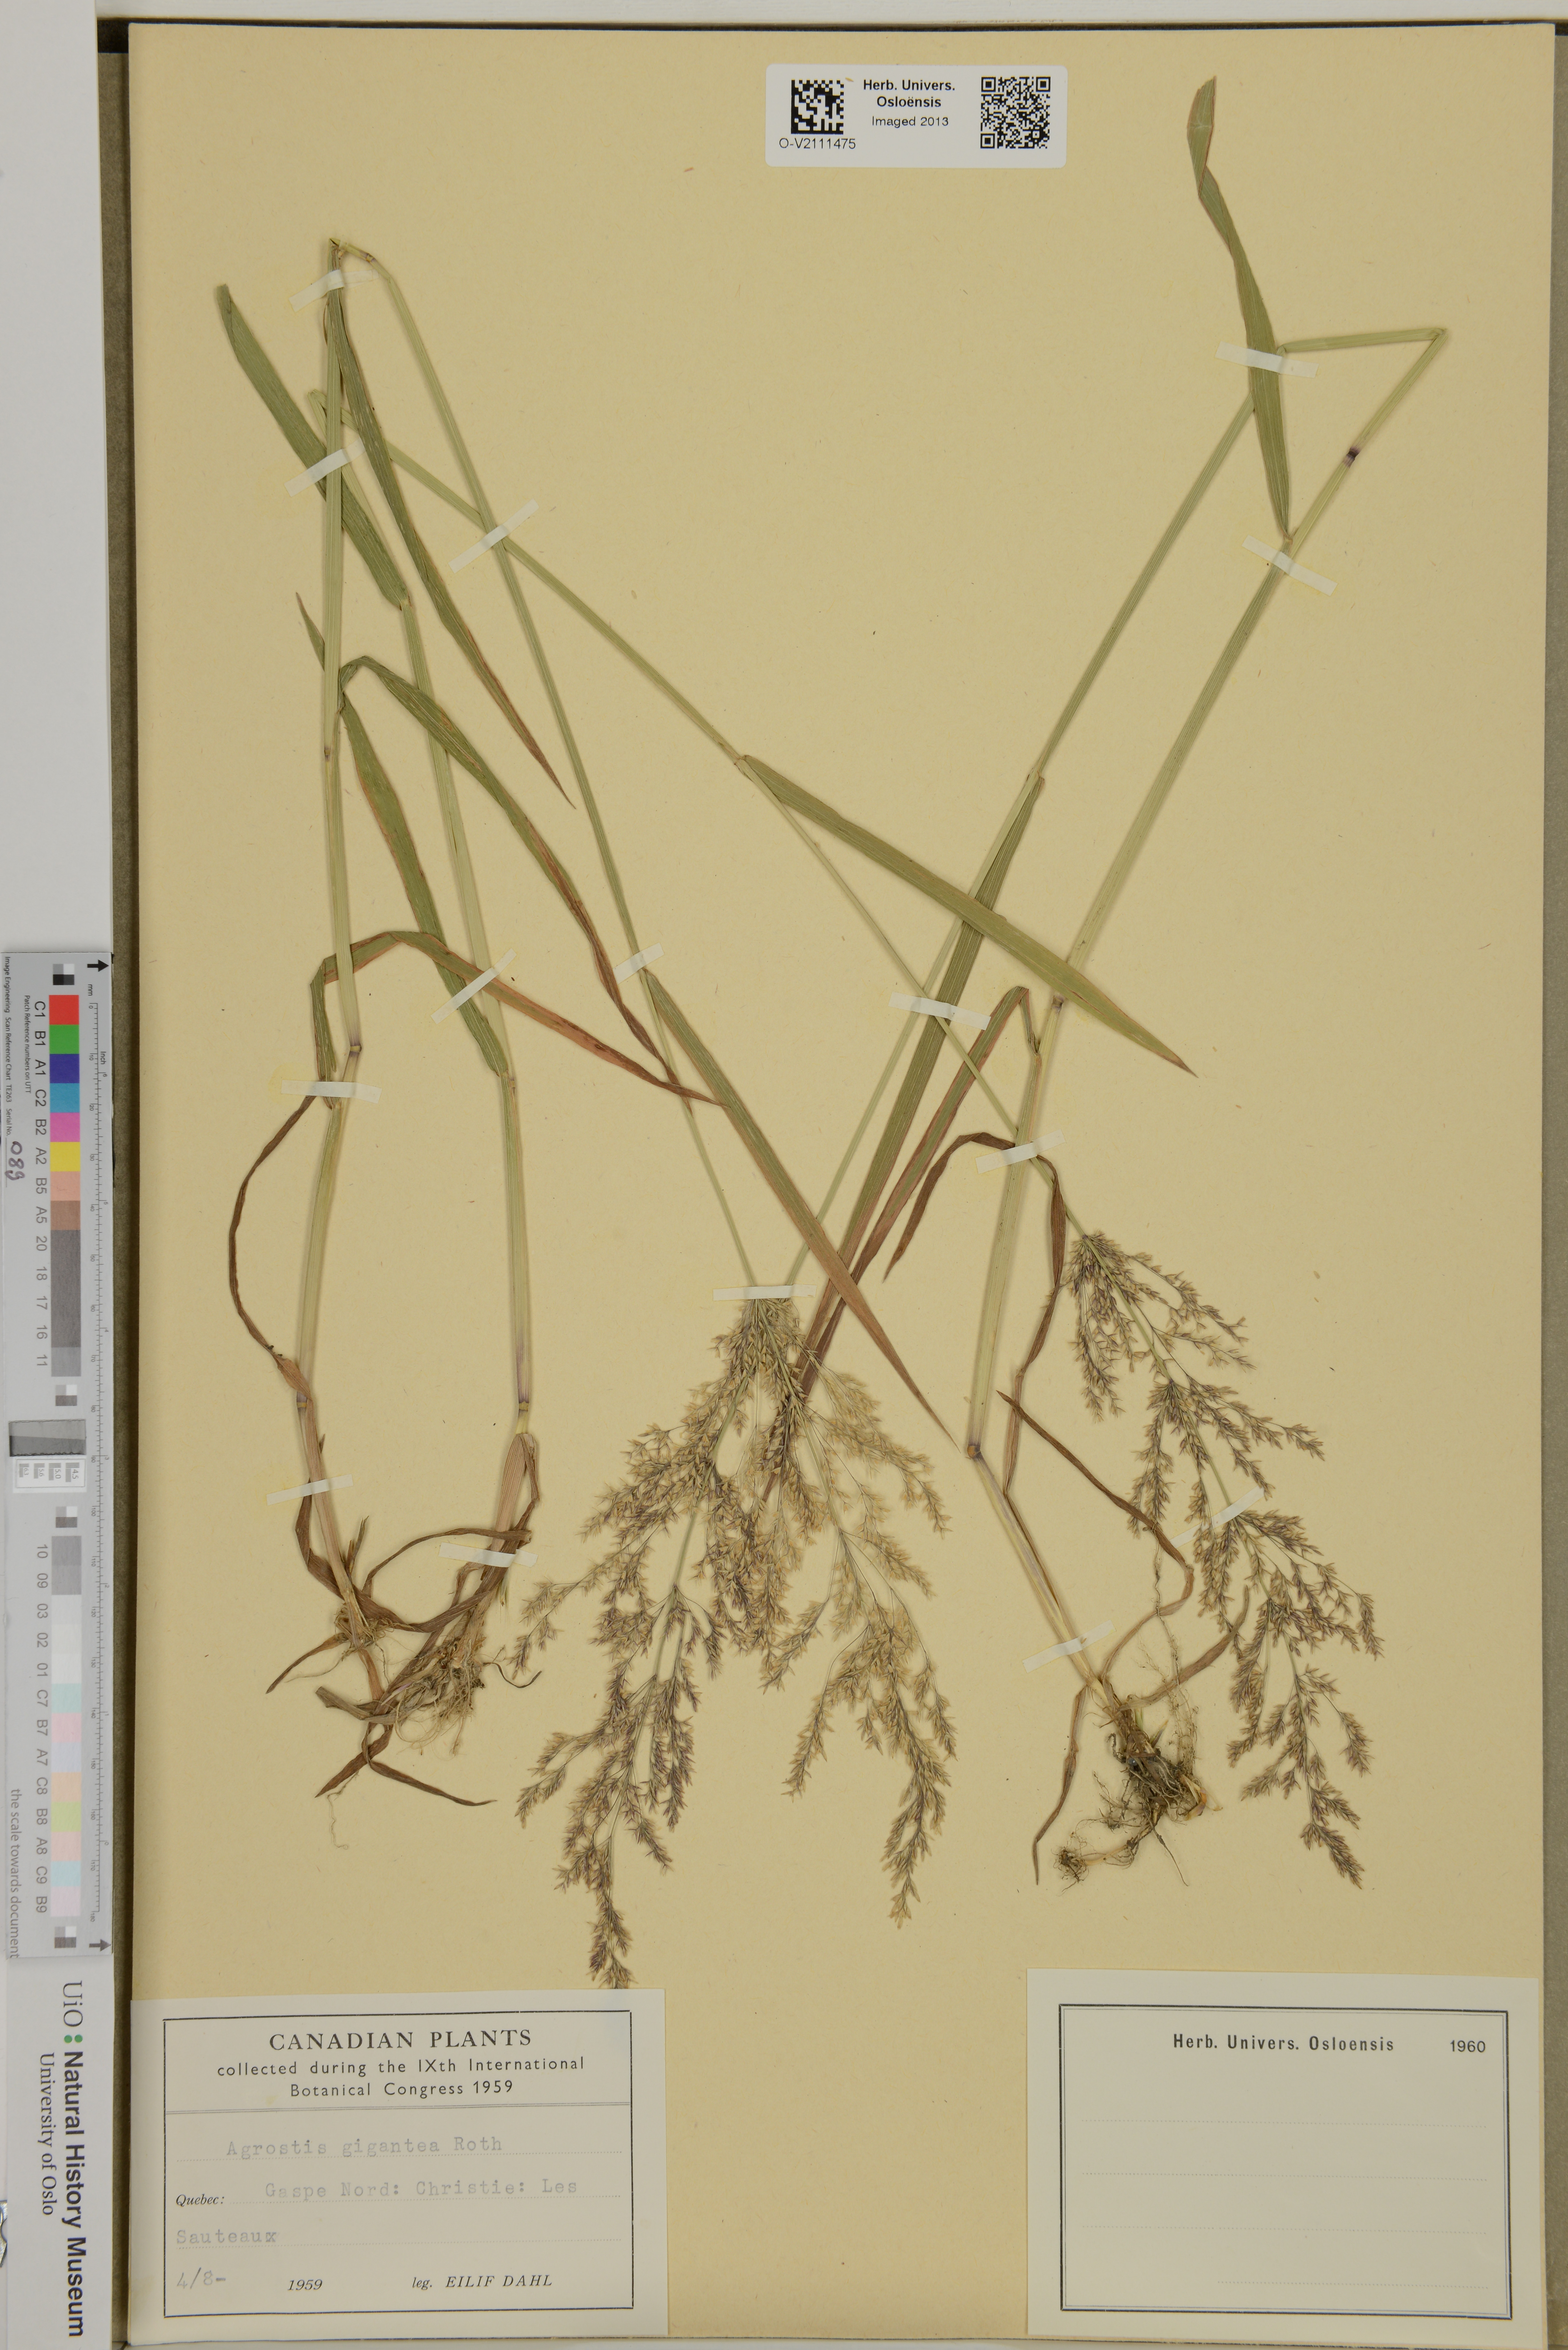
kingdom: Plantae
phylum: Tracheophyta
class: Liliopsida
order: Poales
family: Poaceae
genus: Agrostis
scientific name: Agrostis gigantea
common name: Black bent
